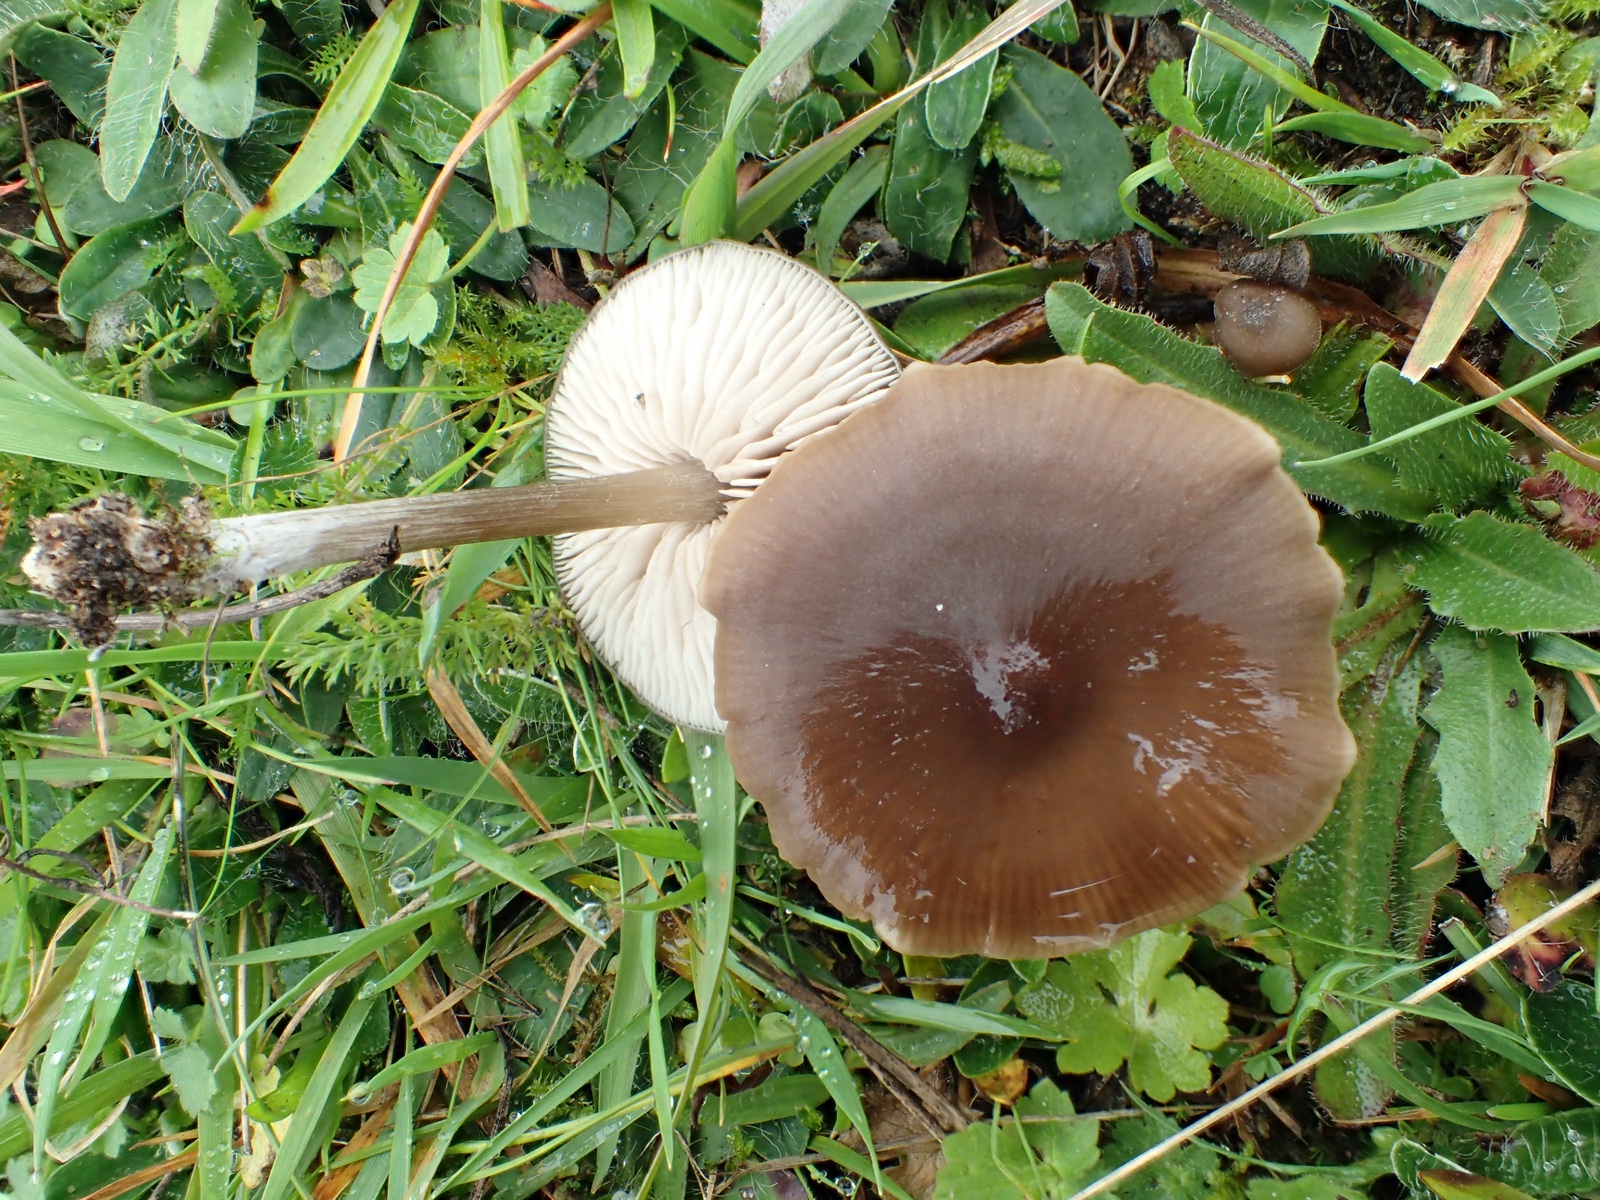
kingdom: Fungi
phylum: Basidiomycota
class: Agaricomycetes
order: Agaricales
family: Entolomataceae
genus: Entoloma
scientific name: Entoloma
